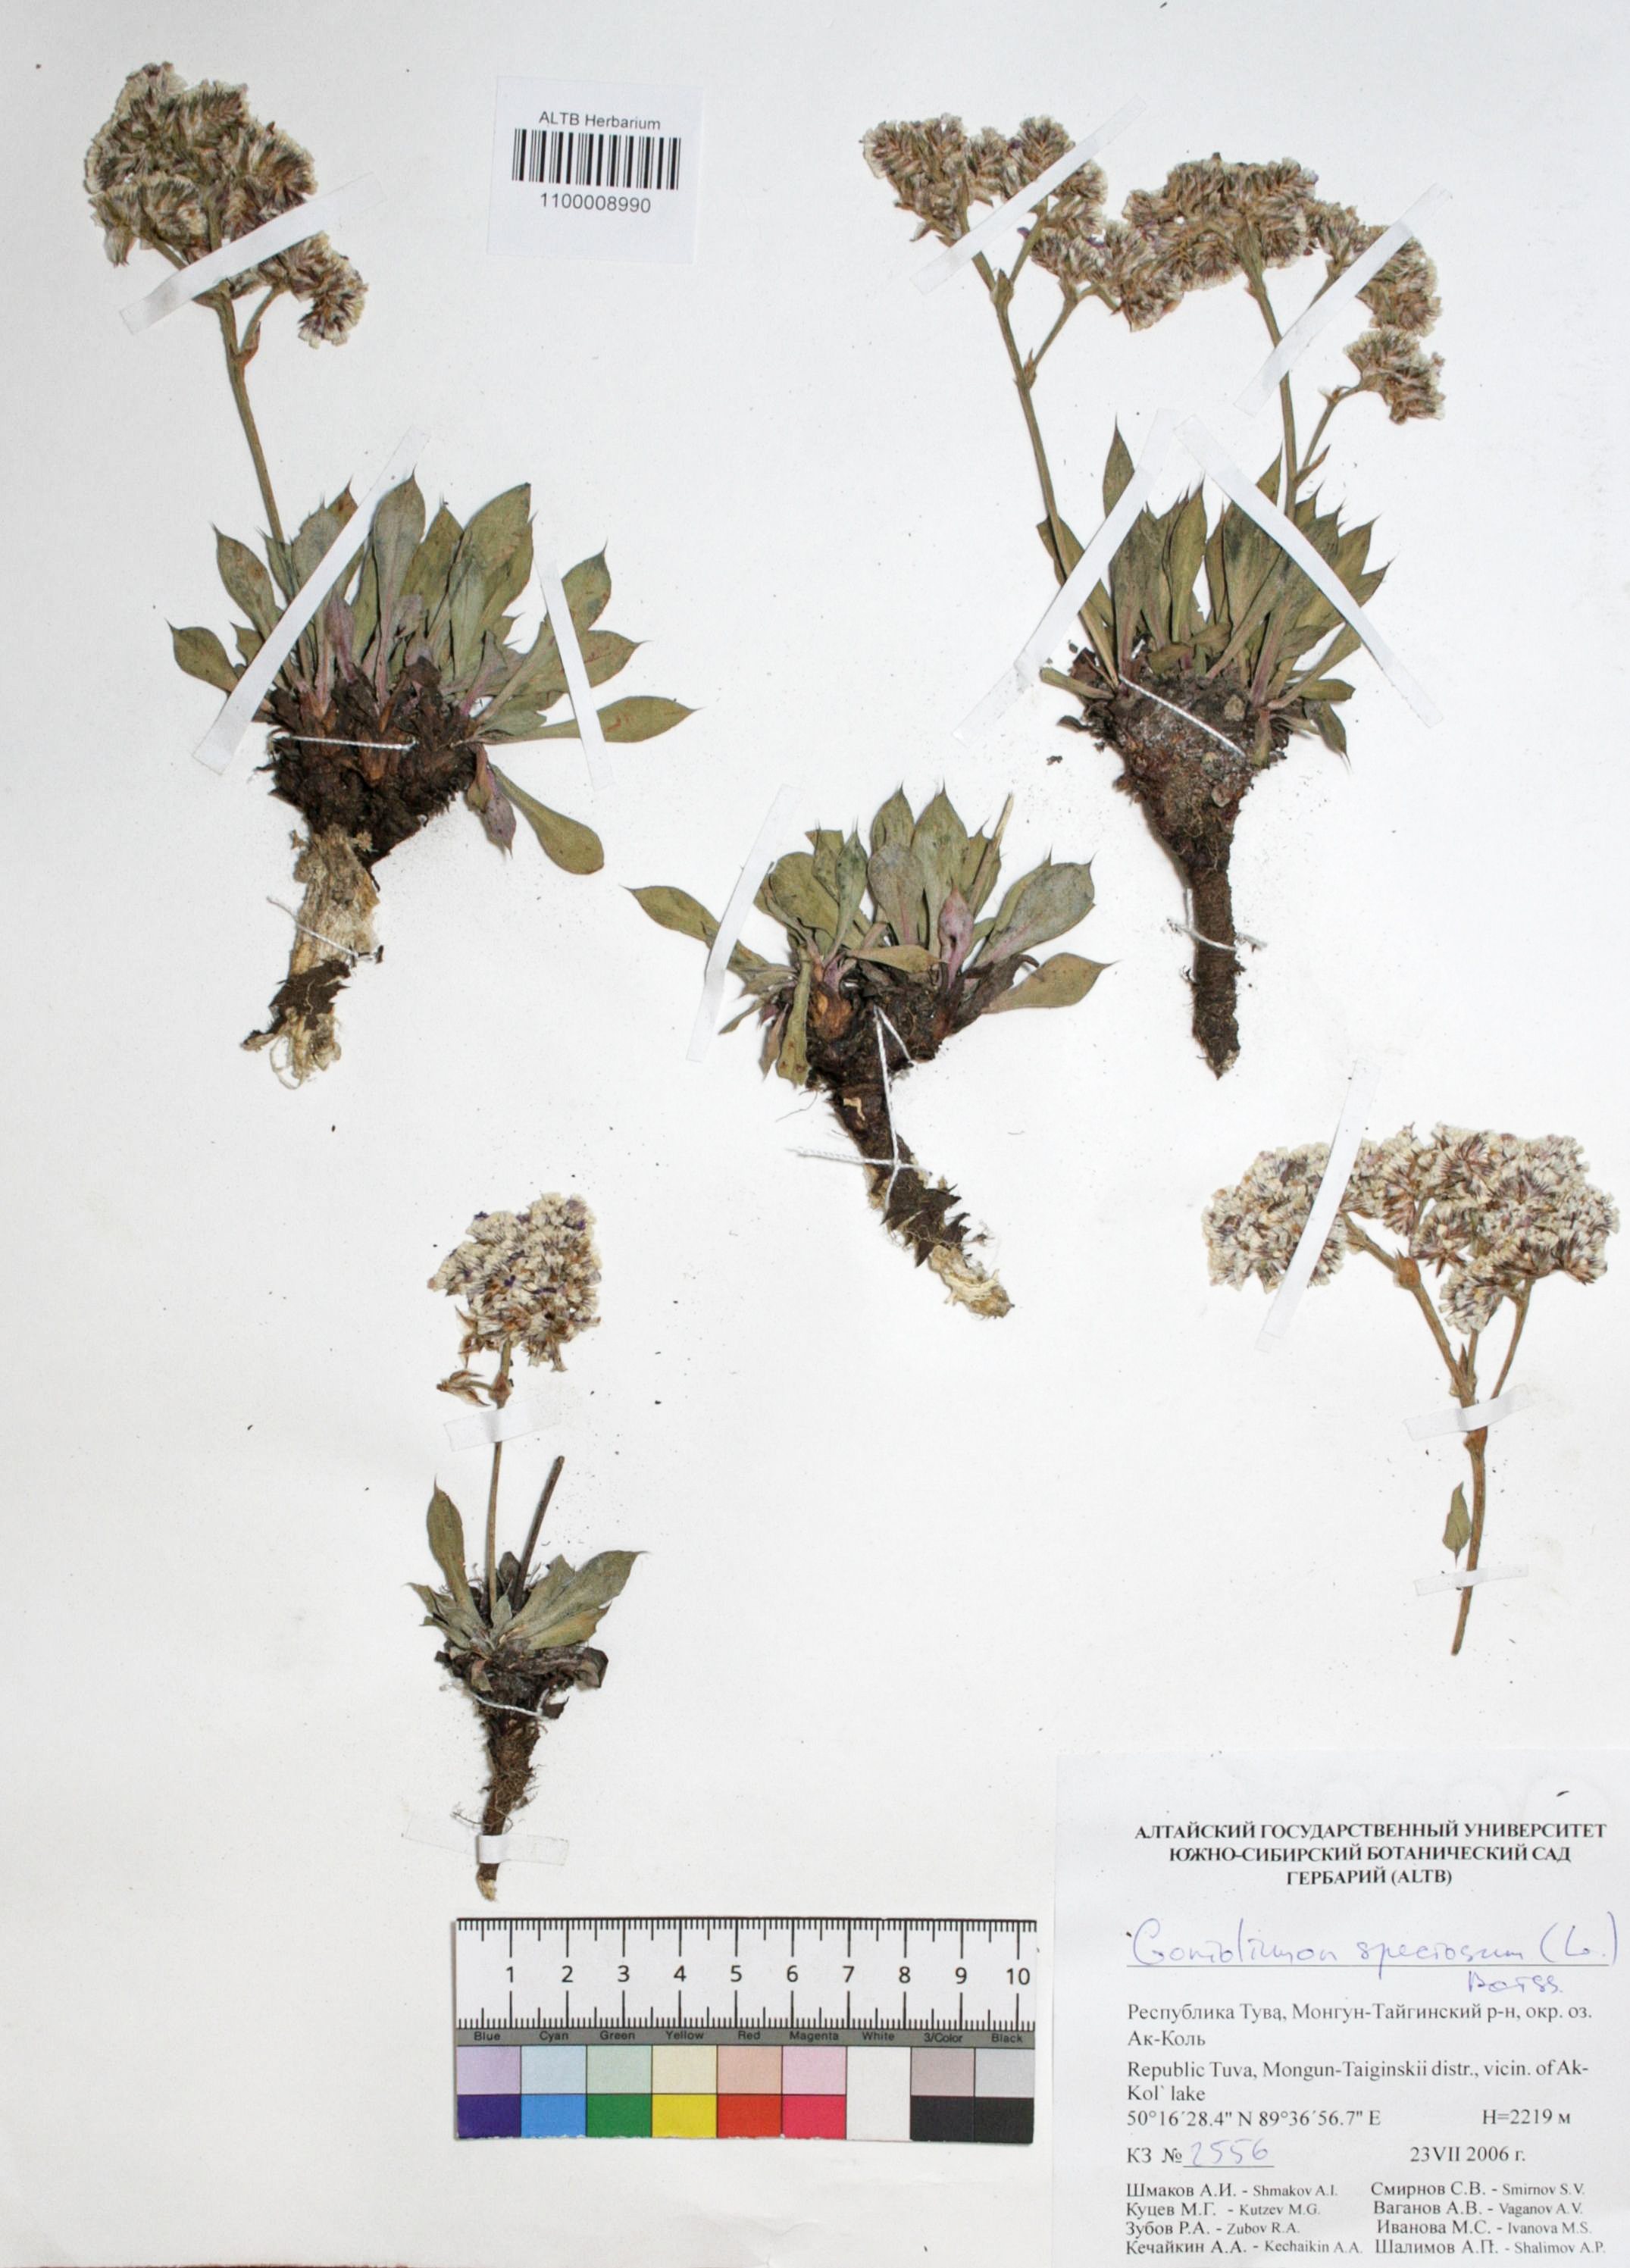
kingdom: Plantae
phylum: Tracheophyta
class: Magnoliopsida
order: Caryophyllales
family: Plumbaginaceae
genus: Goniolimon
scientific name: Goniolimon speciosum
